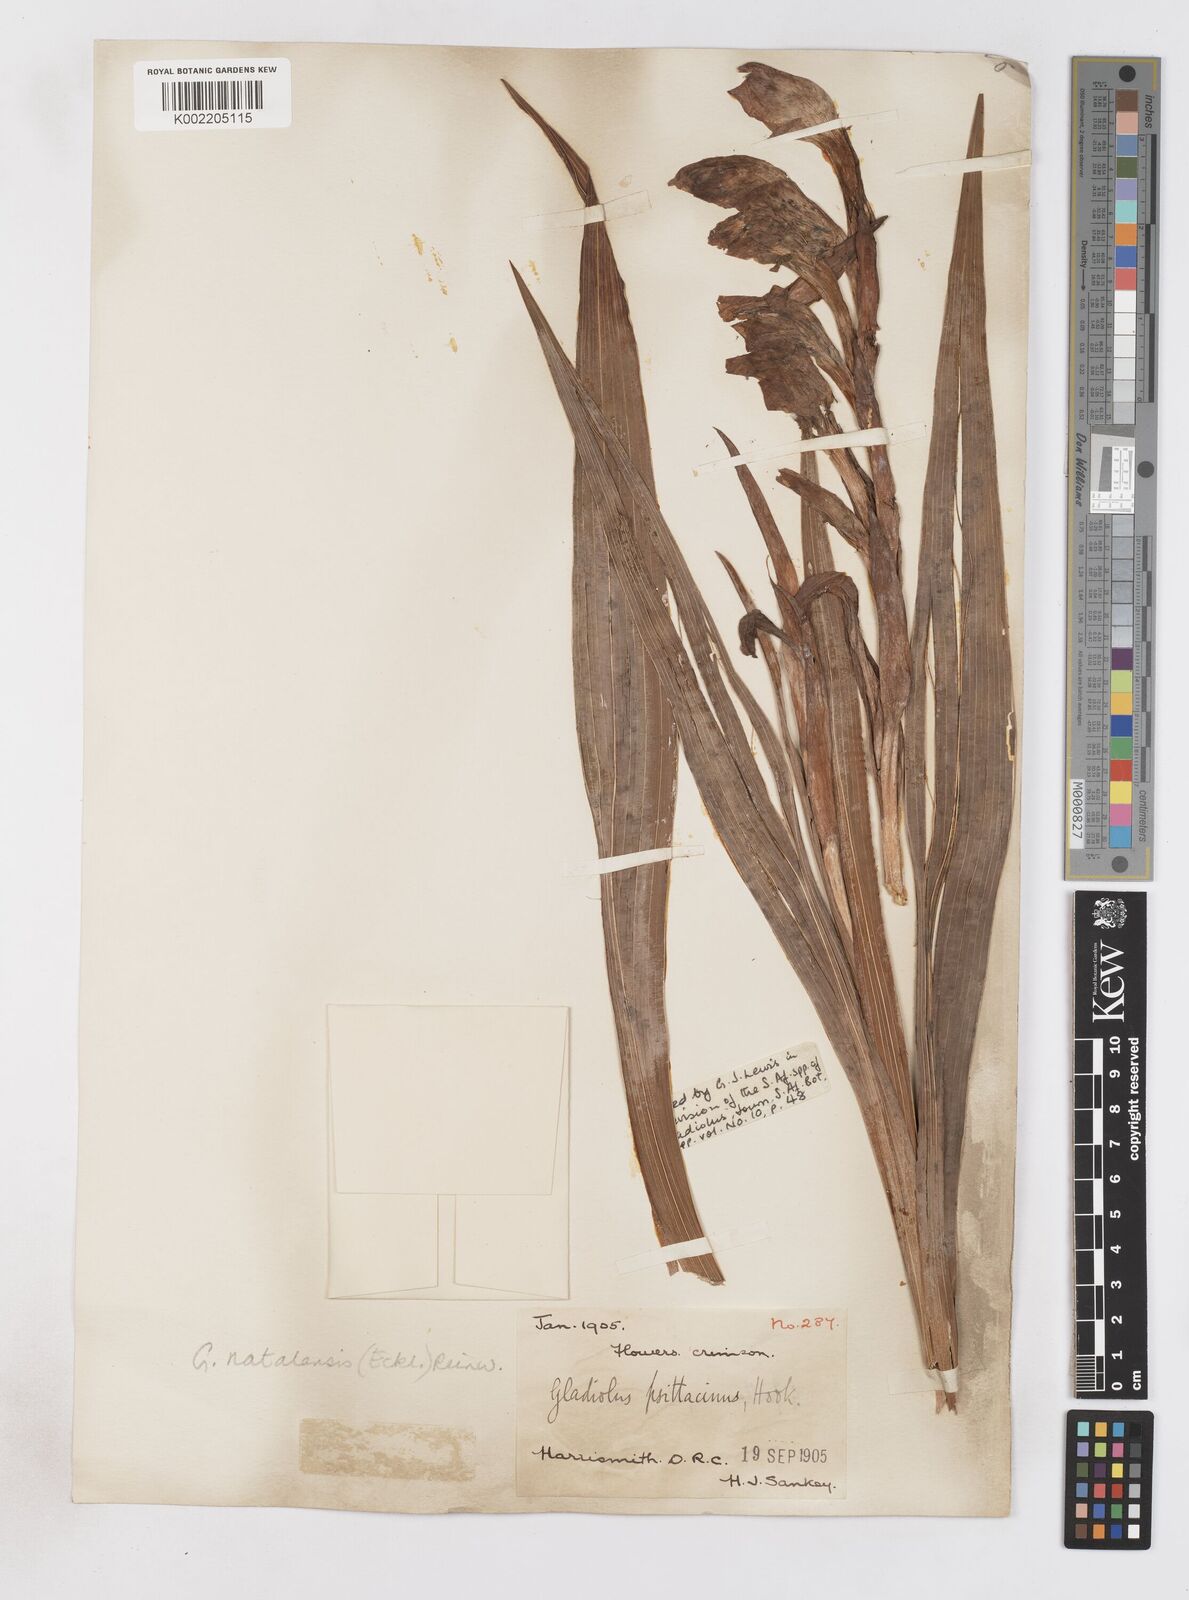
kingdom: Plantae
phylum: Tracheophyta
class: Liliopsida
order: Asparagales
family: Iridaceae
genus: Gladiolus
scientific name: Gladiolus dalenii
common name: Cornflag
